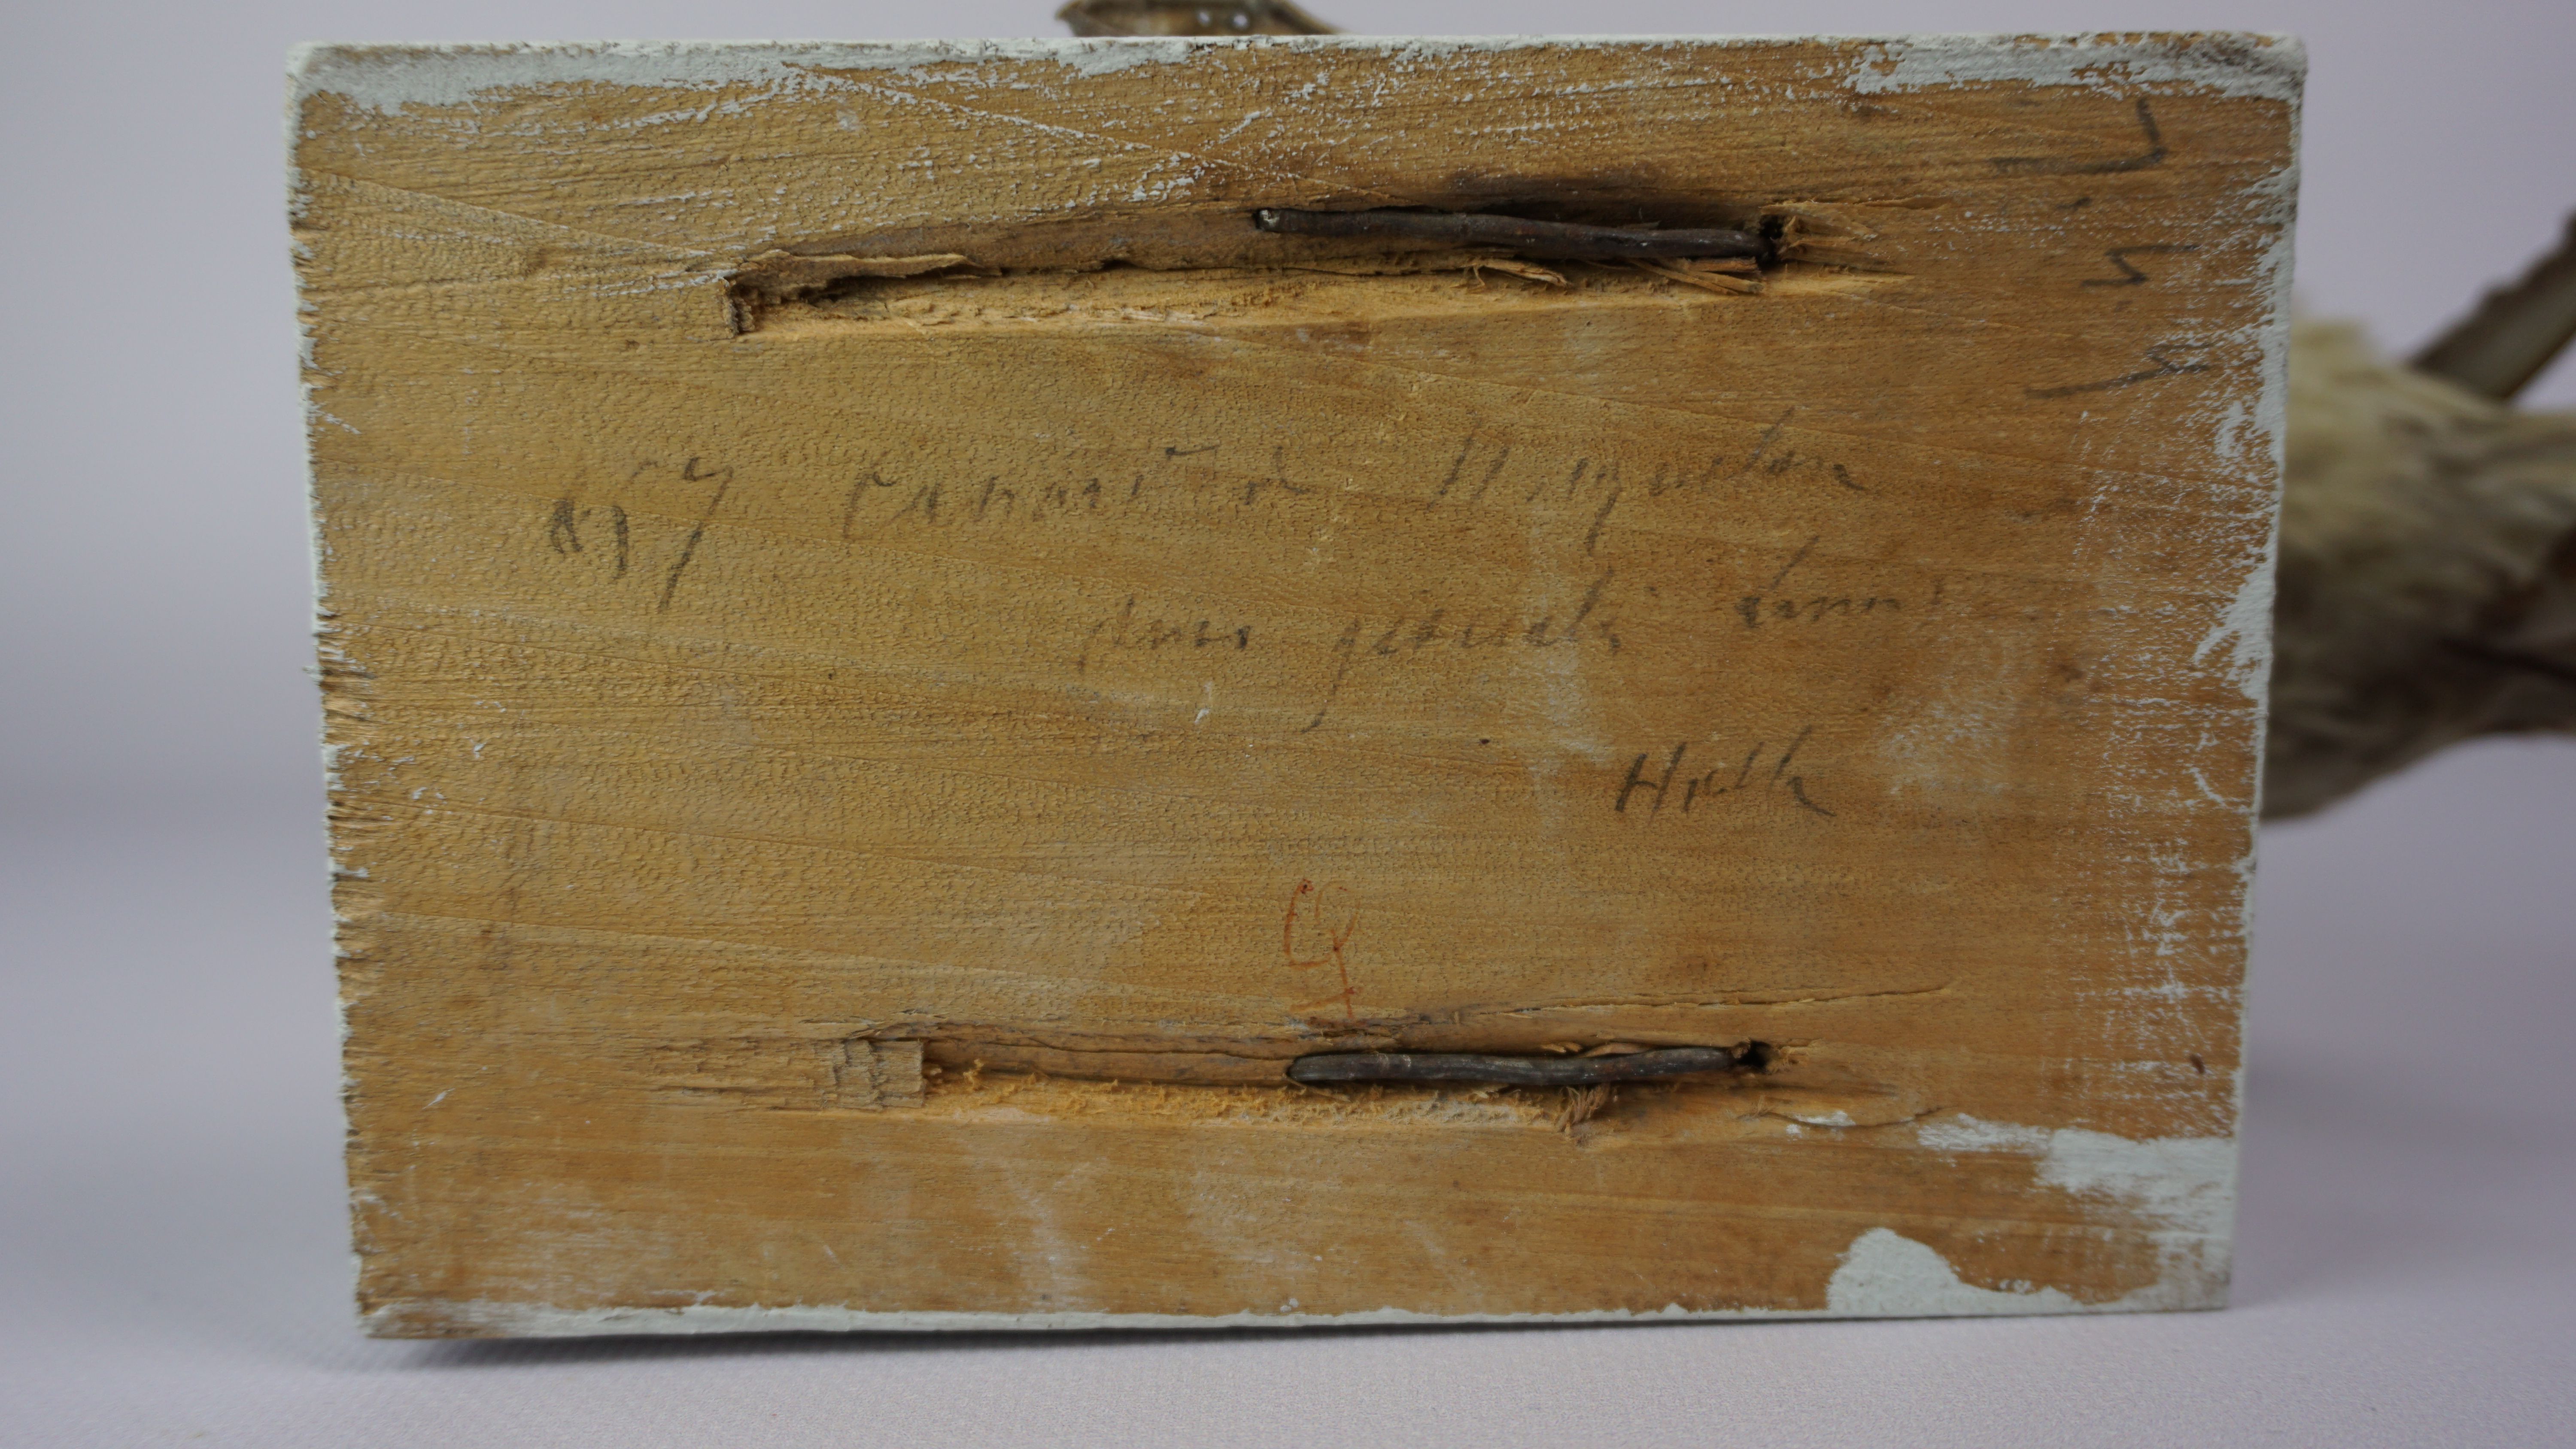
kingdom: Animalia
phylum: Chordata
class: Aves
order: Anseriformes
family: Anatidae
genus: Clangula
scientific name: Clangula hyemalis
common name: Long-tailed duck
